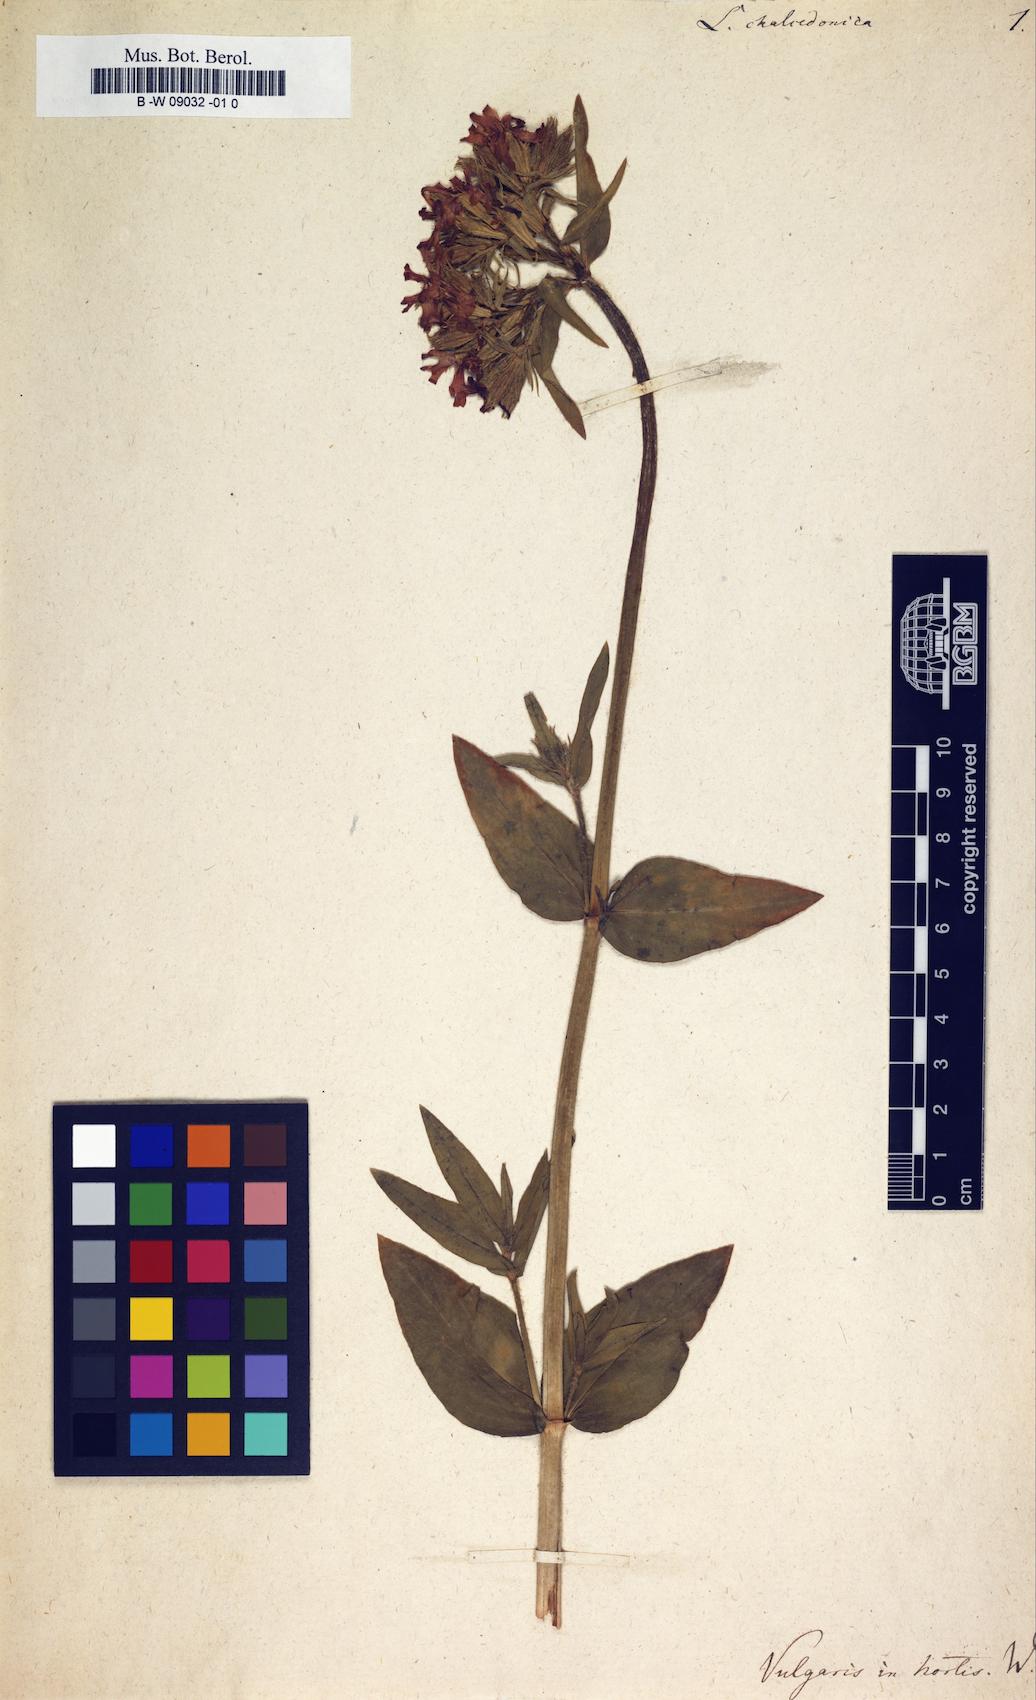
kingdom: Plantae
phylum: Tracheophyta
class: Magnoliopsida
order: Caryophyllales
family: Caryophyllaceae
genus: Silene
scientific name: Silene chalcedonica
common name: Maltese-cross
